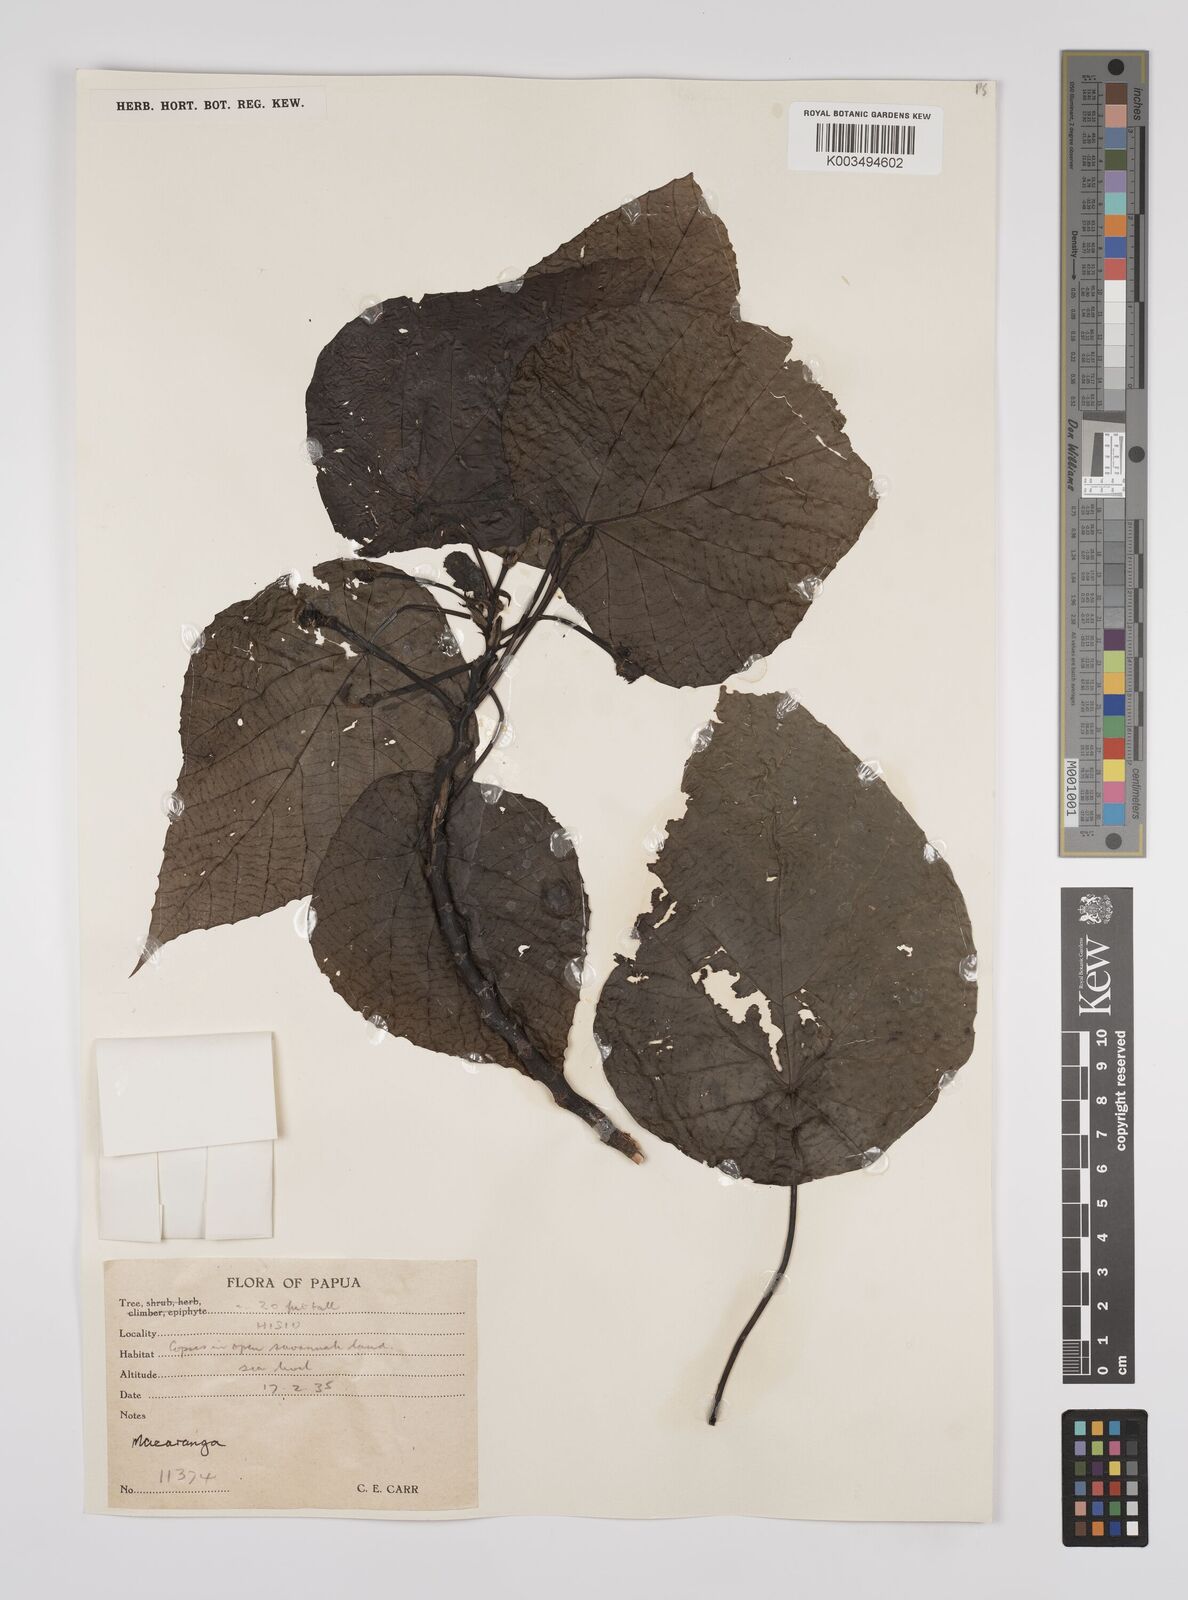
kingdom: Plantae
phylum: Tracheophyta
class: Magnoliopsida
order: Malpighiales
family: Euphorbiaceae
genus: Macaranga
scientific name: Macaranga tanarius
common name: Parasol leaf tree
